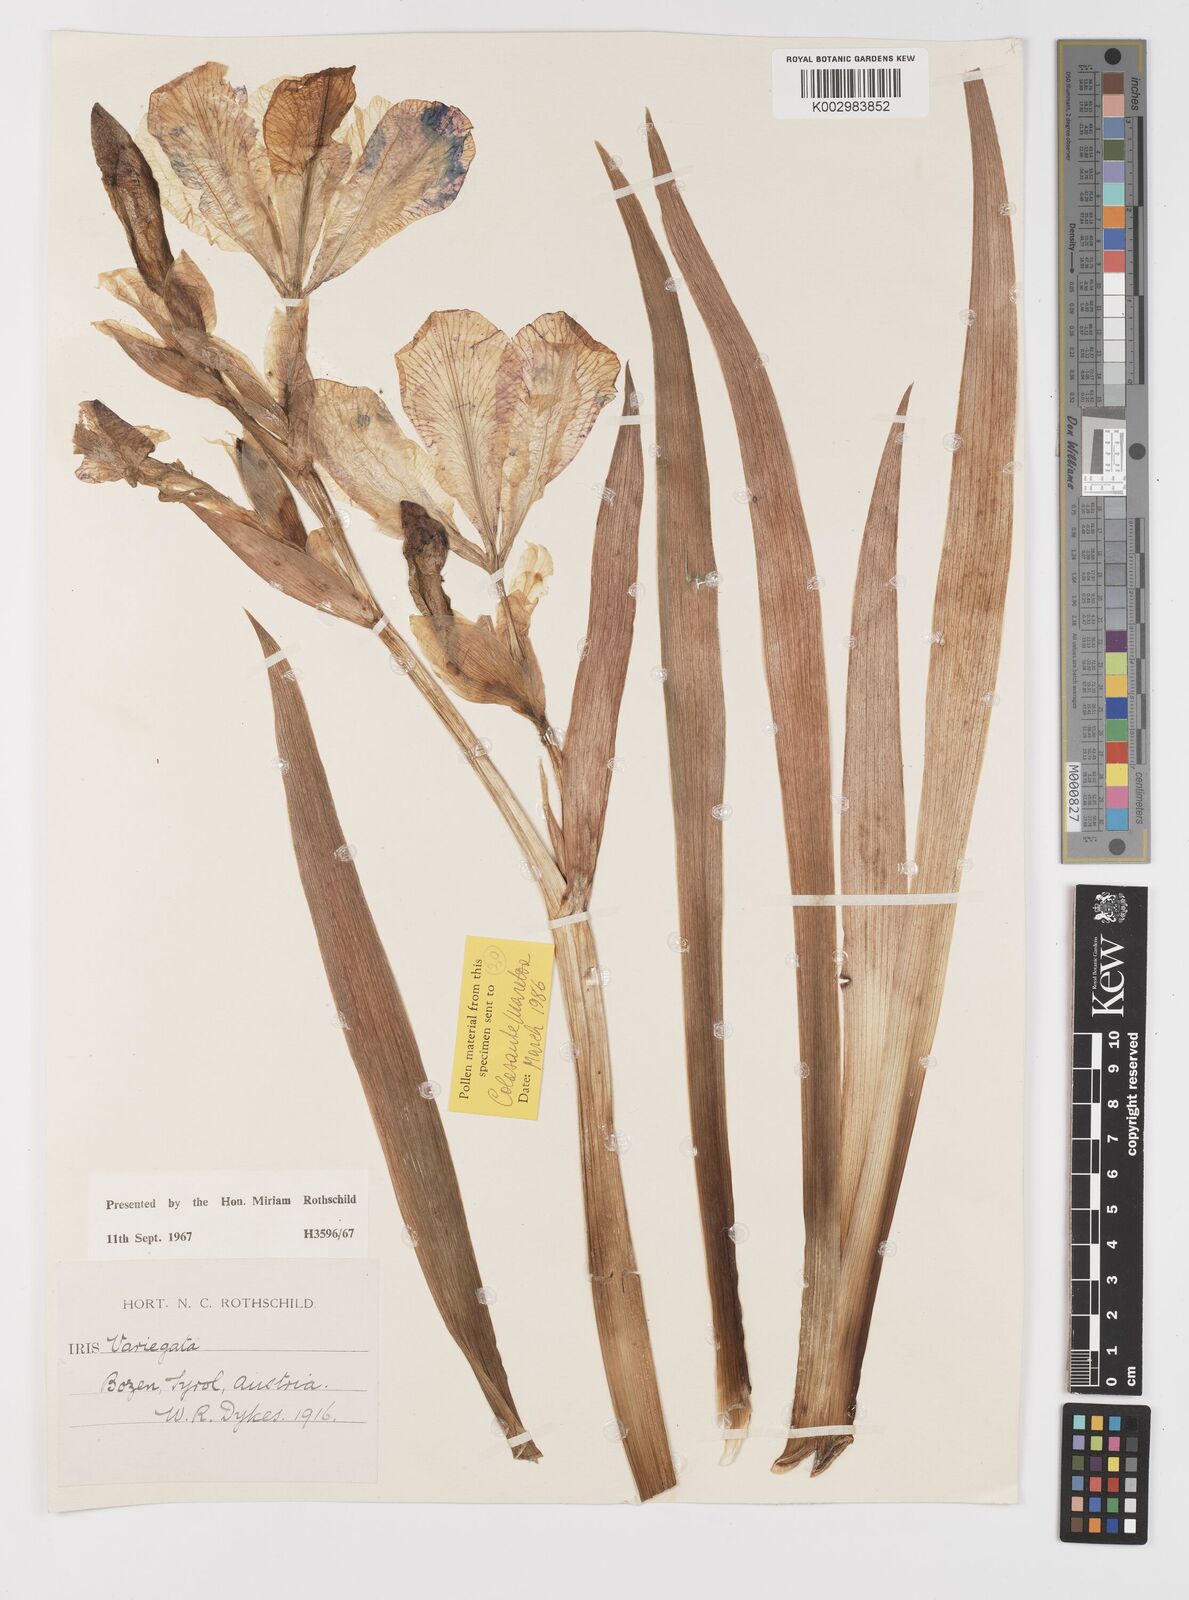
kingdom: Plantae
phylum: Tracheophyta
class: Liliopsida
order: Asparagales
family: Iridaceae
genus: Iris
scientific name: Iris variegata
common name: Hungarian iris
